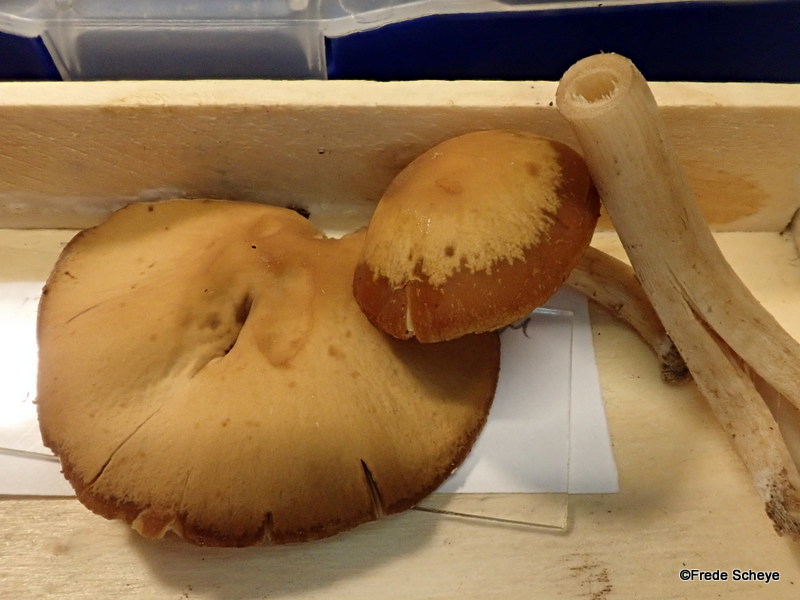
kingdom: Fungi
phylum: Basidiomycota
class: Agaricomycetes
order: Agaricales
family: Psathyrellaceae
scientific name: Psathyrellaceae
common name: mørkhatfamilien
